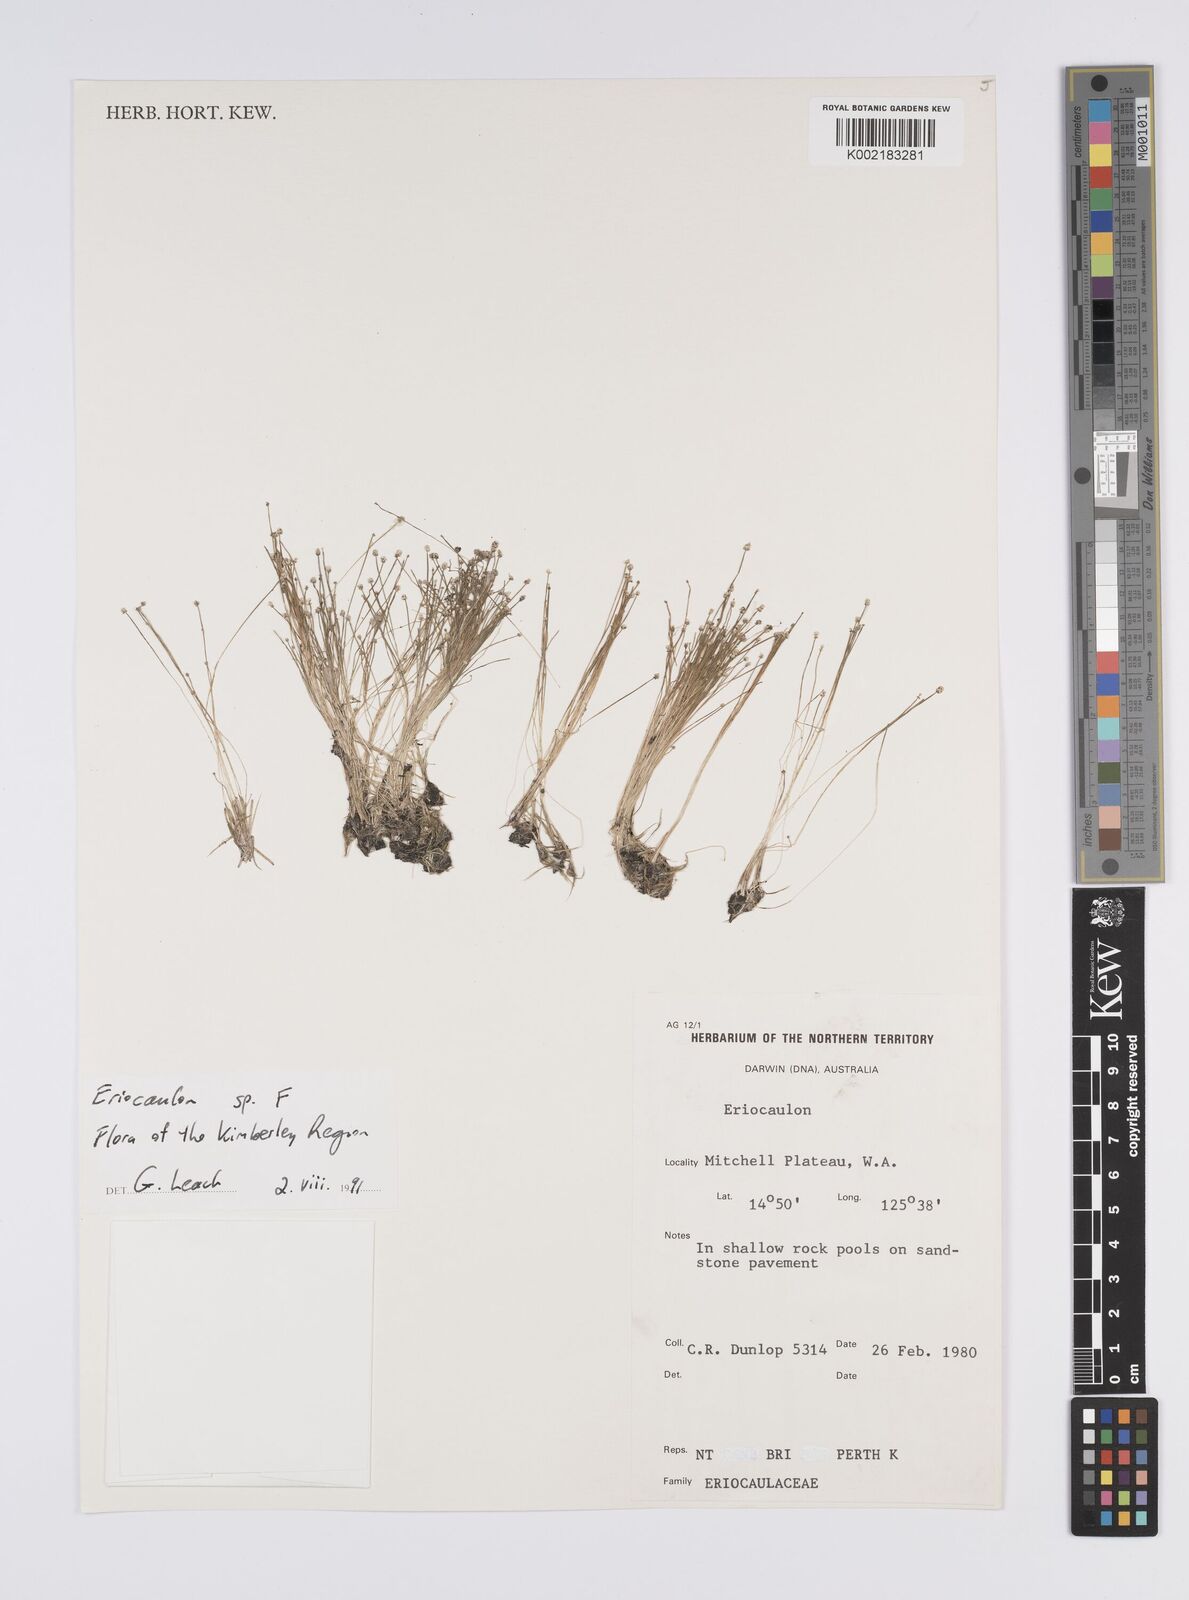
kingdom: Plantae
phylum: Tracheophyta
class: Liliopsida
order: Poales
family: Eriocaulaceae
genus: Eriocaulon
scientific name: Eriocaulon
